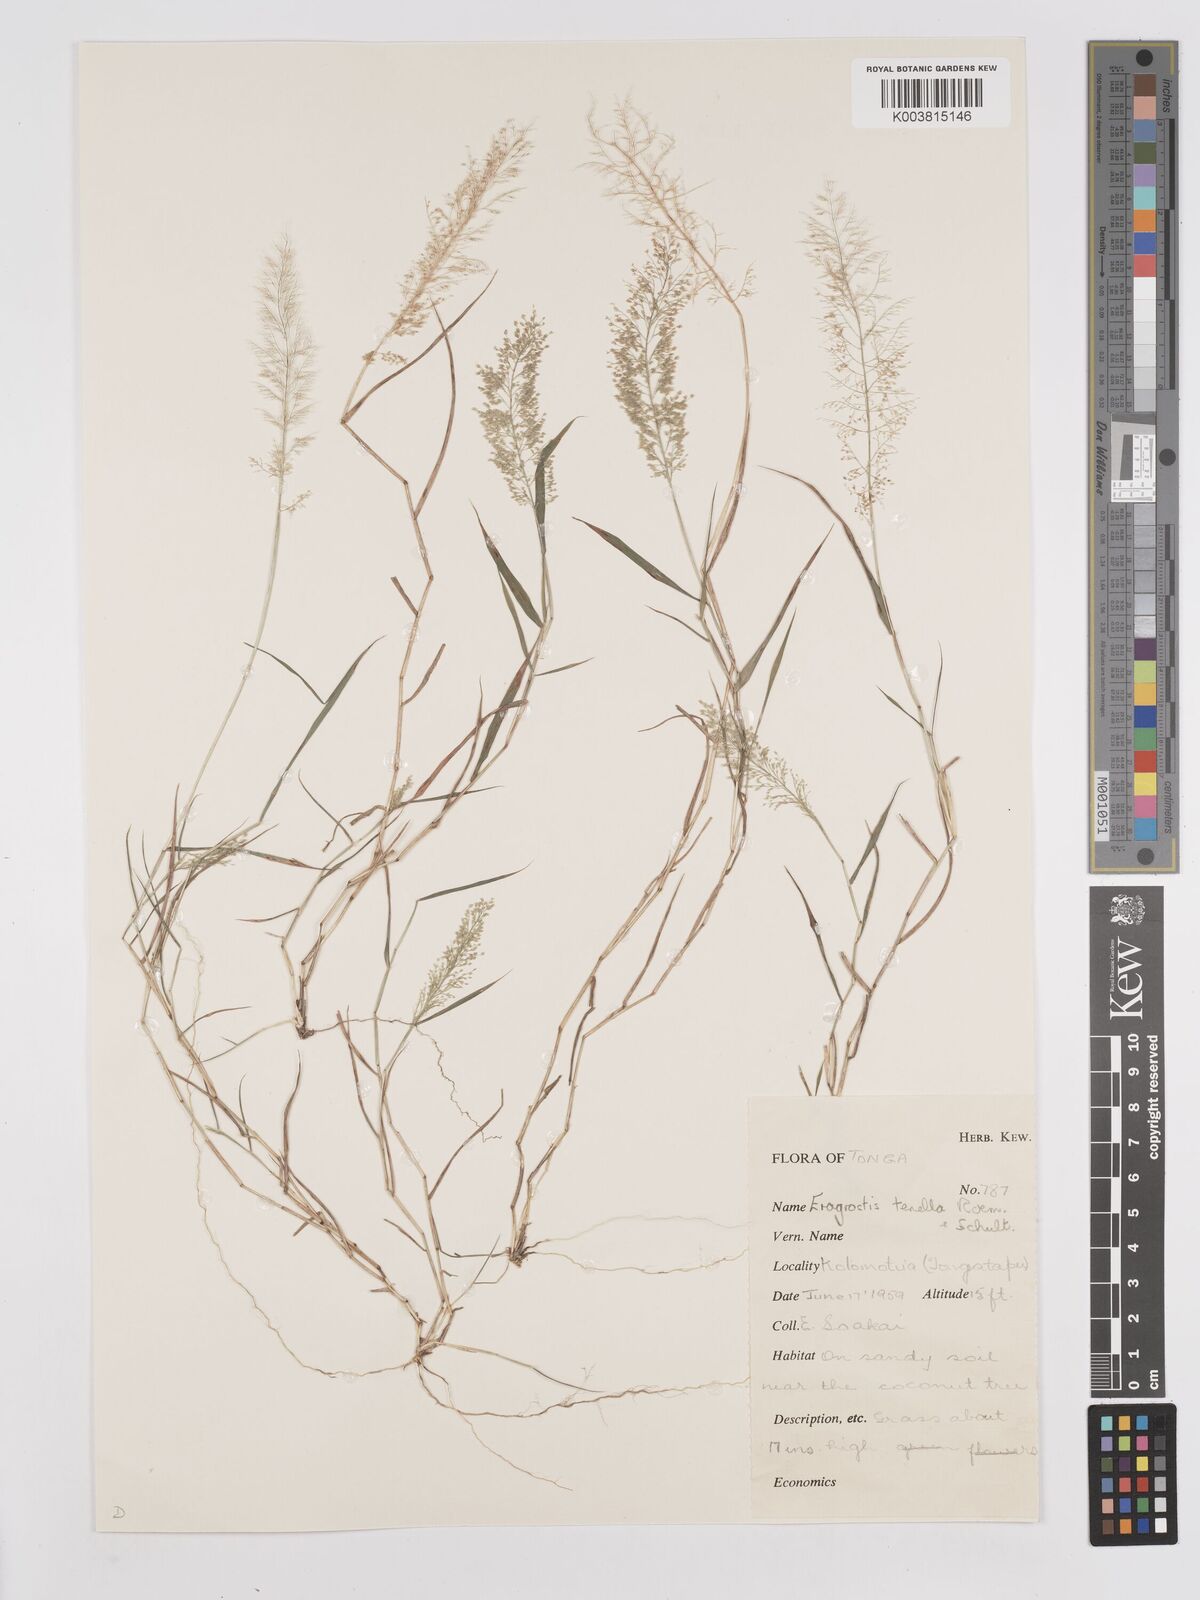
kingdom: Plantae
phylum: Tracheophyta
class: Liliopsida
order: Poales
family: Poaceae
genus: Eragrostis
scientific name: Eragrostis tenella
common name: Japanese lovegrass
